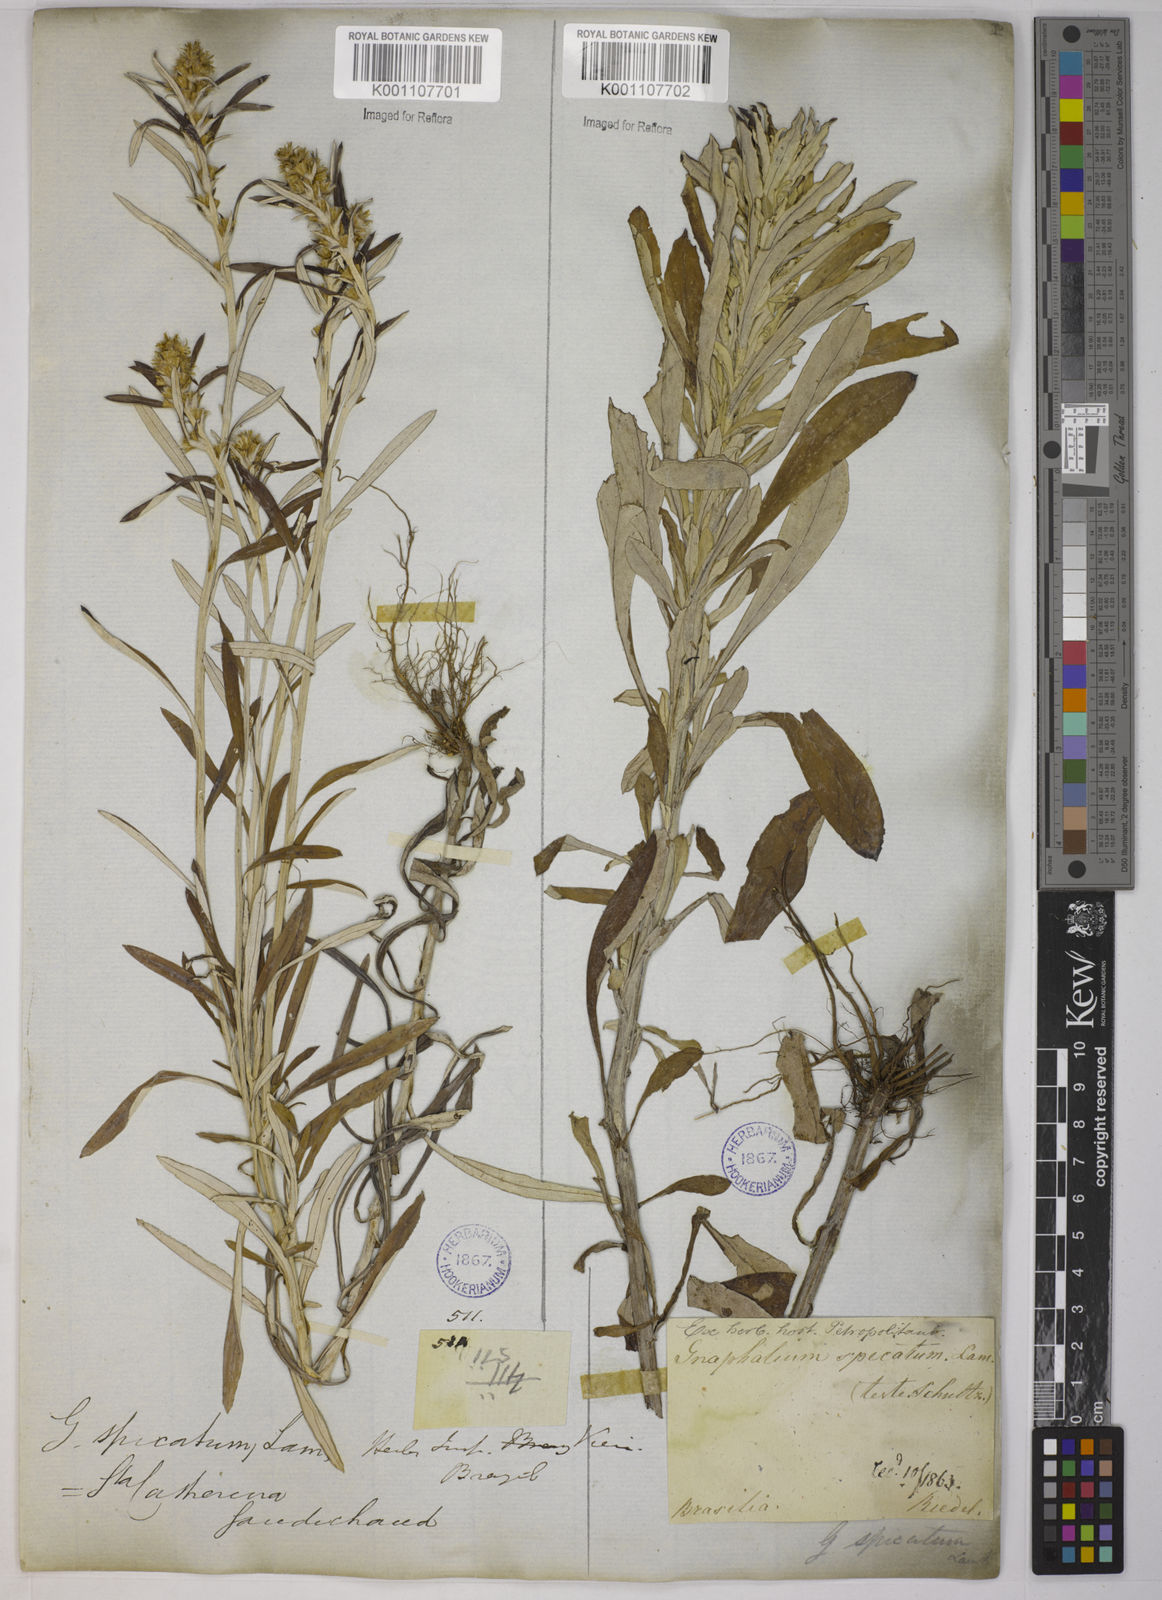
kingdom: Plantae
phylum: Tracheophyta
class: Magnoliopsida
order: Asterales
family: Asteraceae
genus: Gamochaeta
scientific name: Gamochaeta simplicicaulis
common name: Simple-stem everlasting
